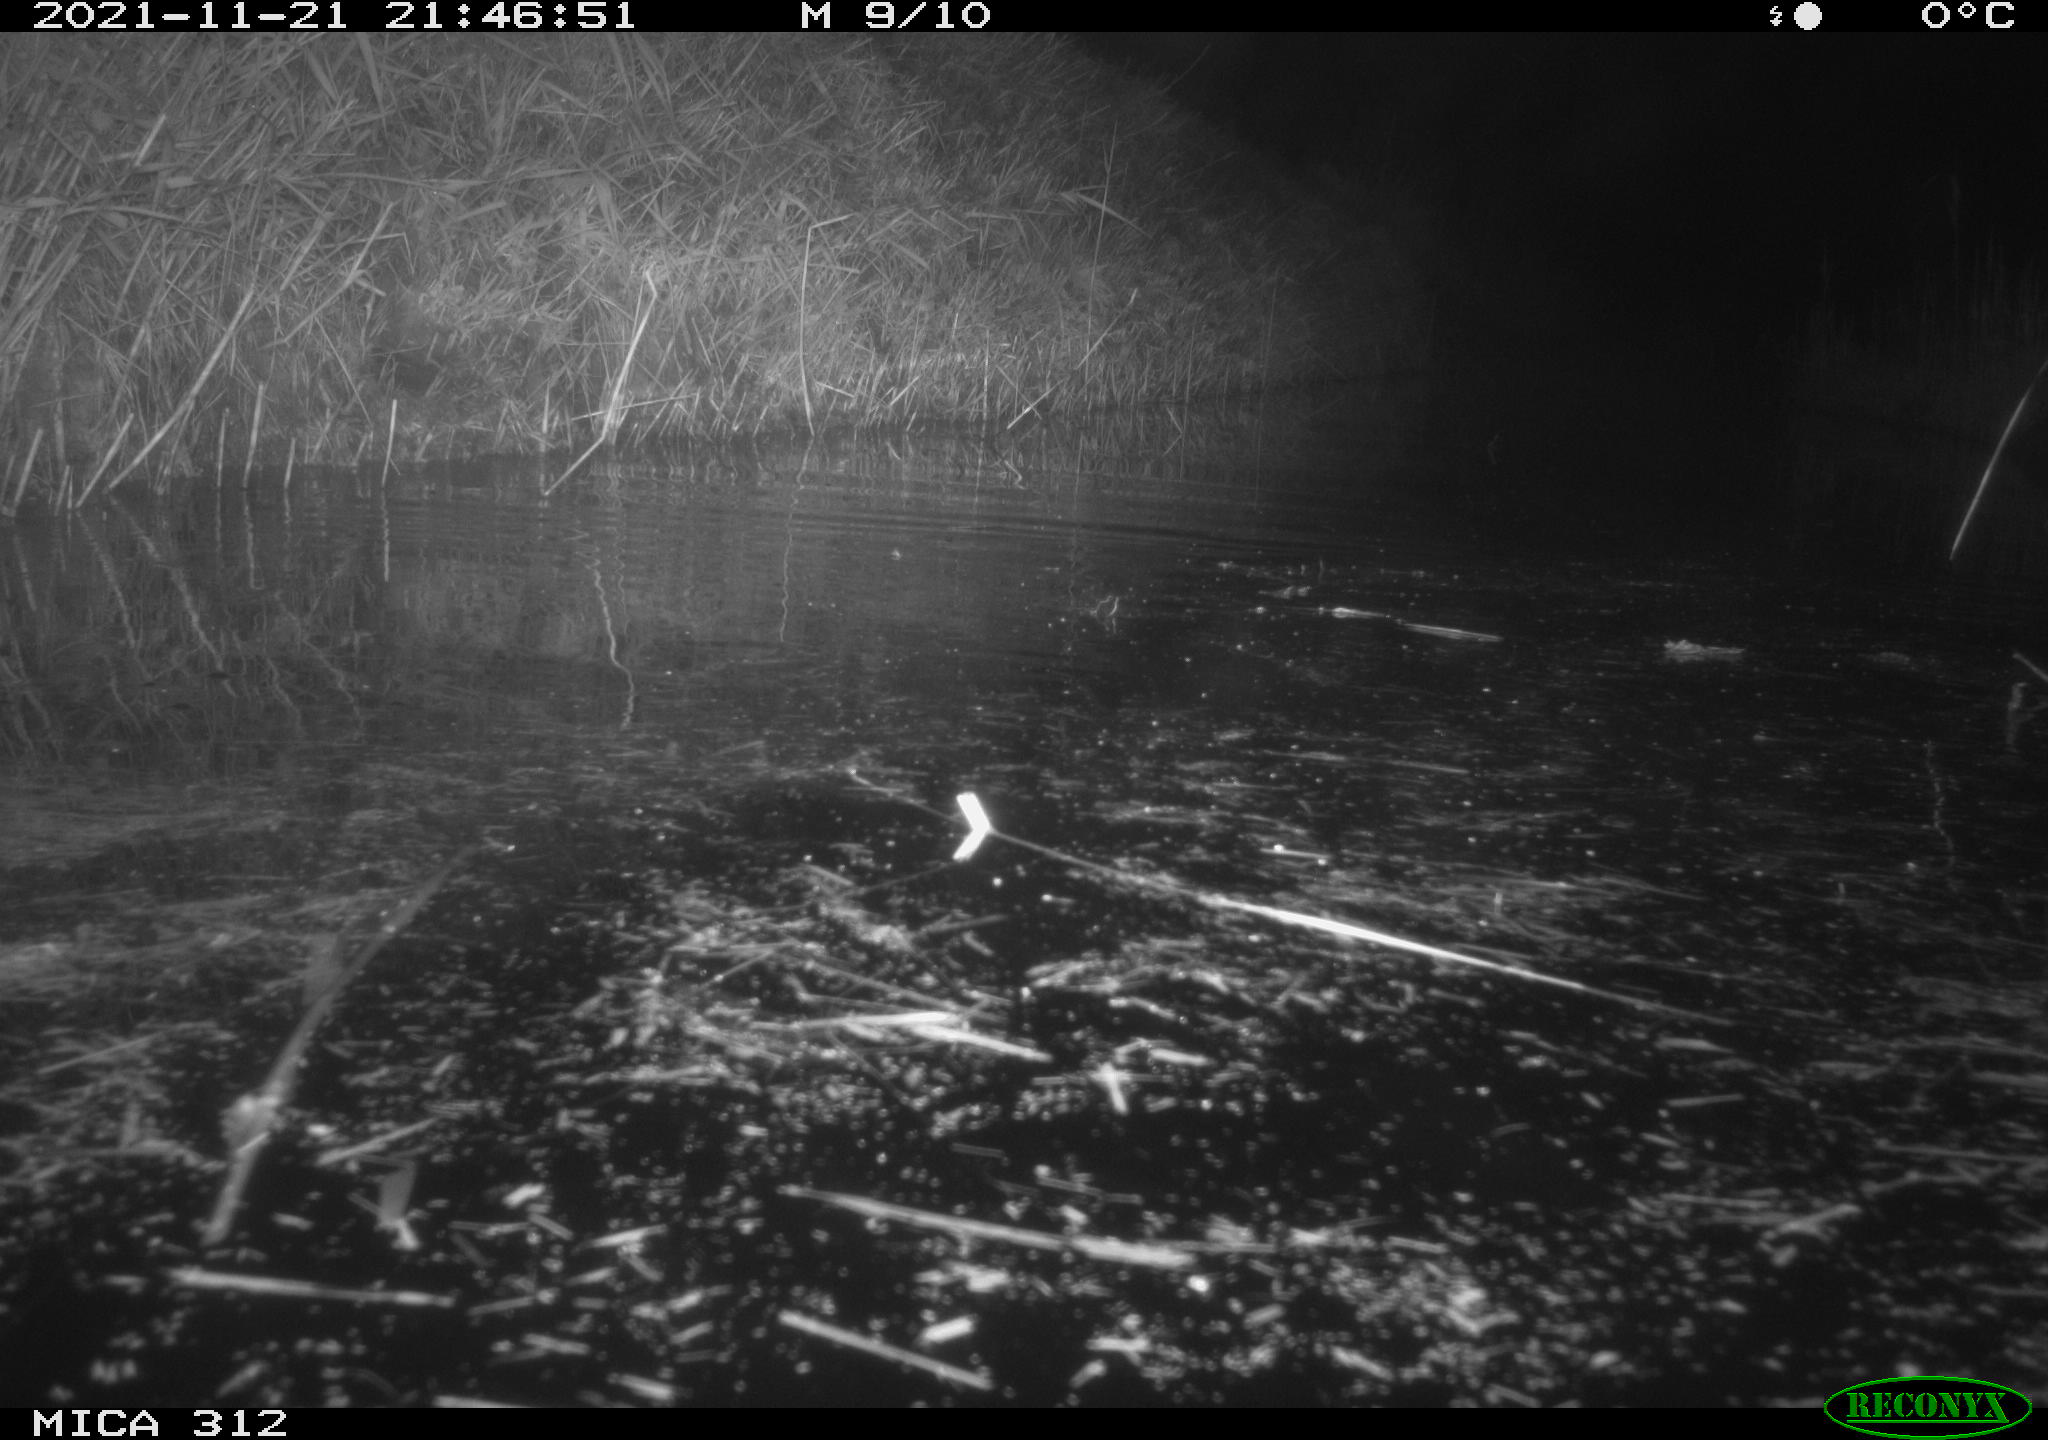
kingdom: Animalia
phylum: Chordata
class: Mammalia
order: Rodentia
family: Muridae
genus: Rattus
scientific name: Rattus norvegicus
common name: Brown rat
